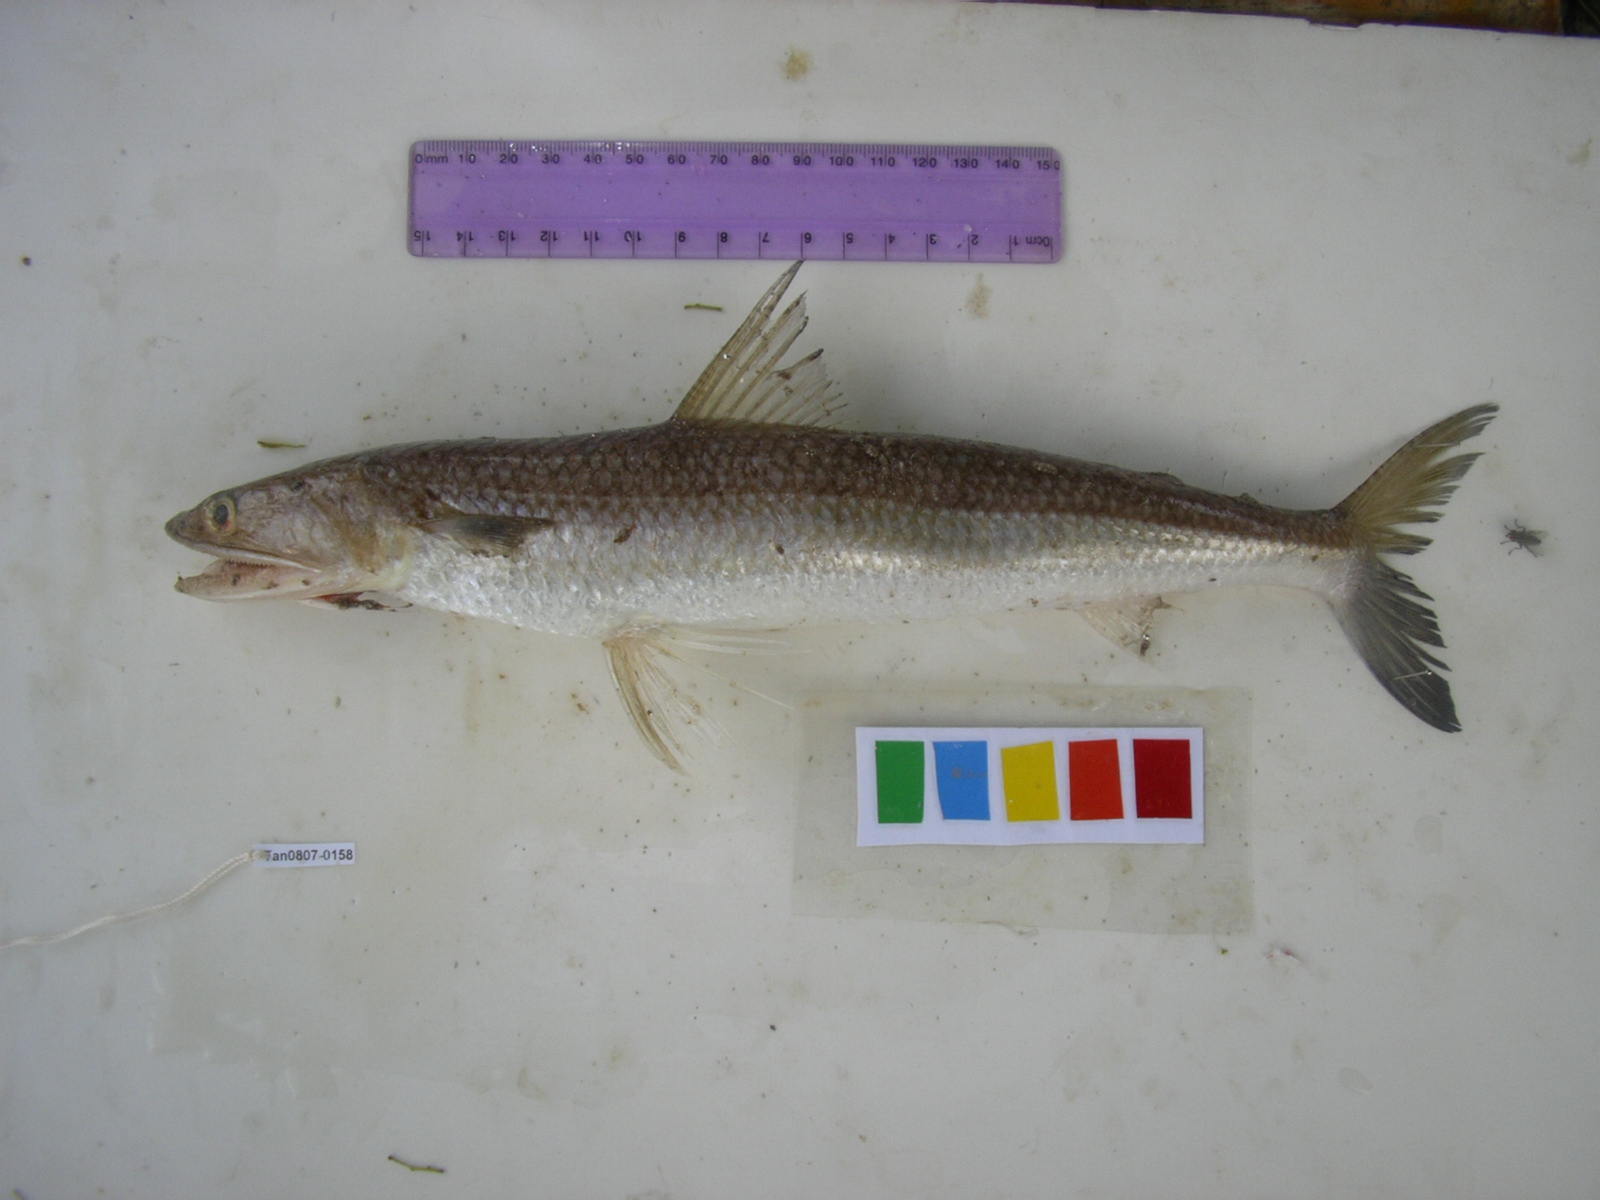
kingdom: Animalia
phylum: Chordata
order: Aulopiformes
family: Synodontidae
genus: Saurida
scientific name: Saurida undosquamis
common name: Brushtooth lizardfish
